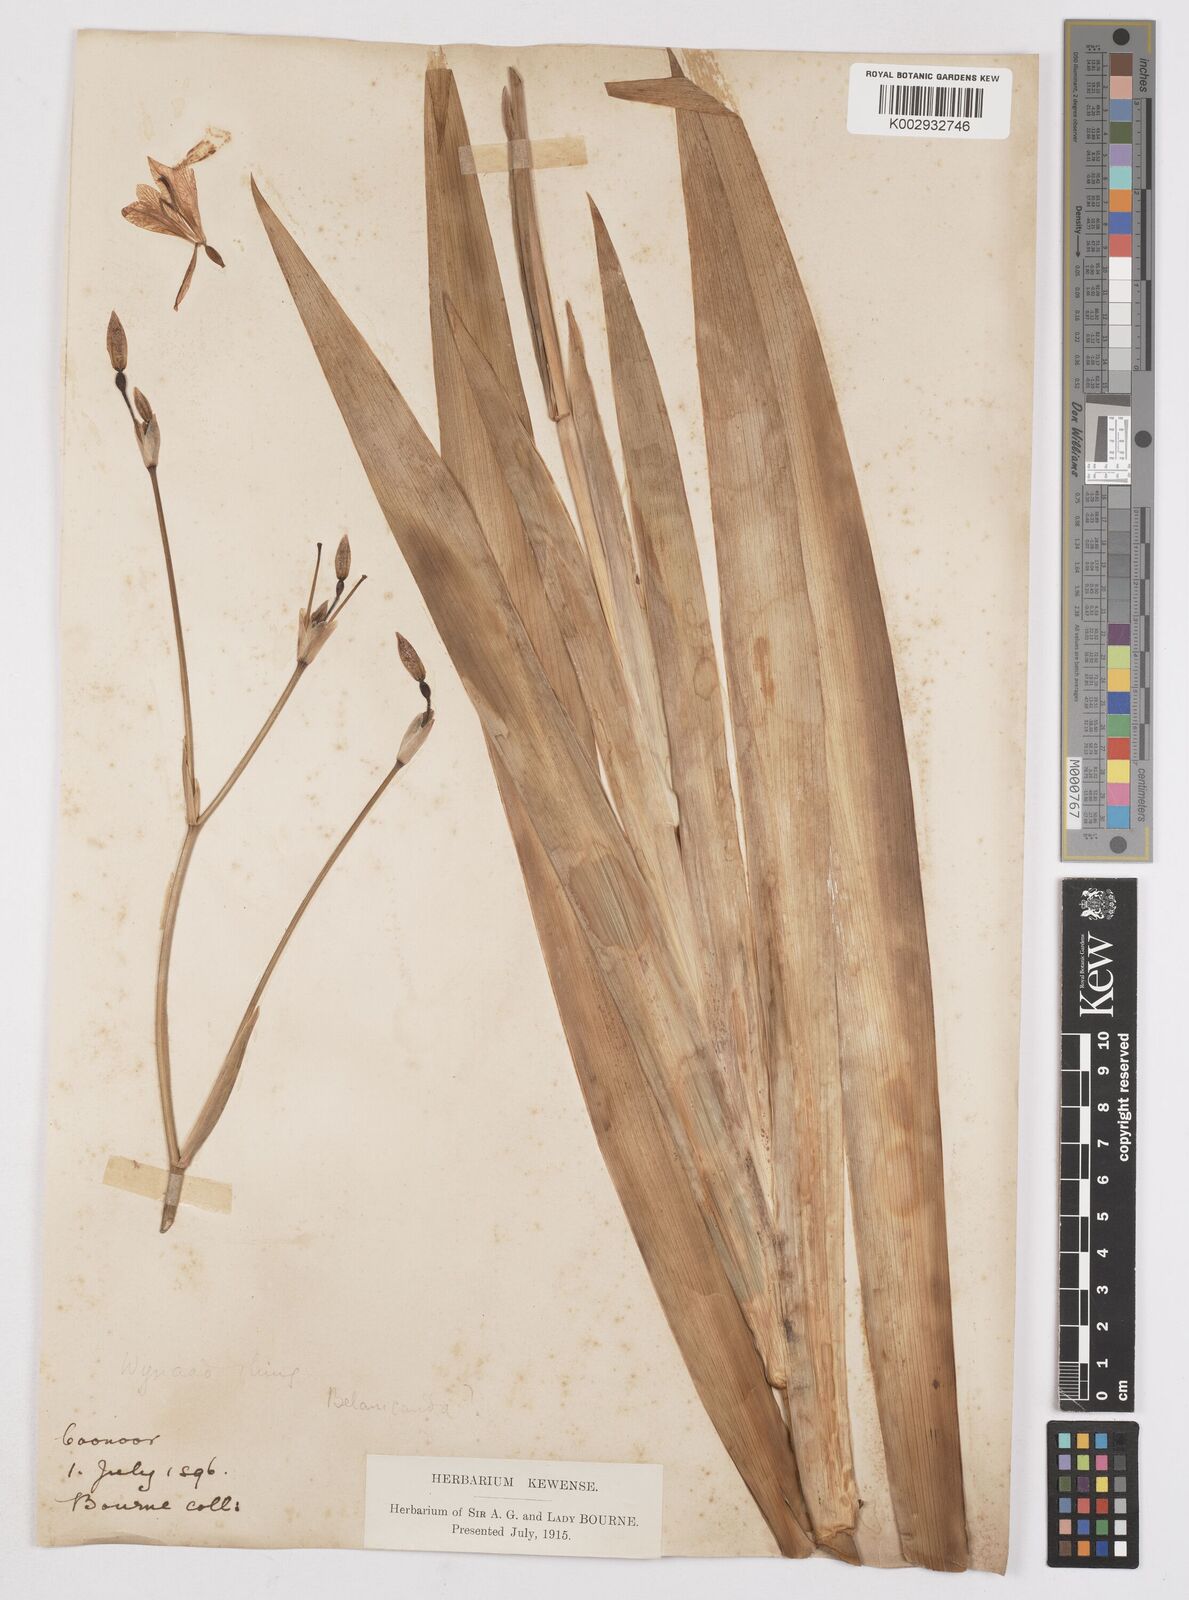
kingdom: Plantae
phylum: Tracheophyta
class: Liliopsida
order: Asparagales
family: Iridaceae
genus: Iris
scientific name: Iris
